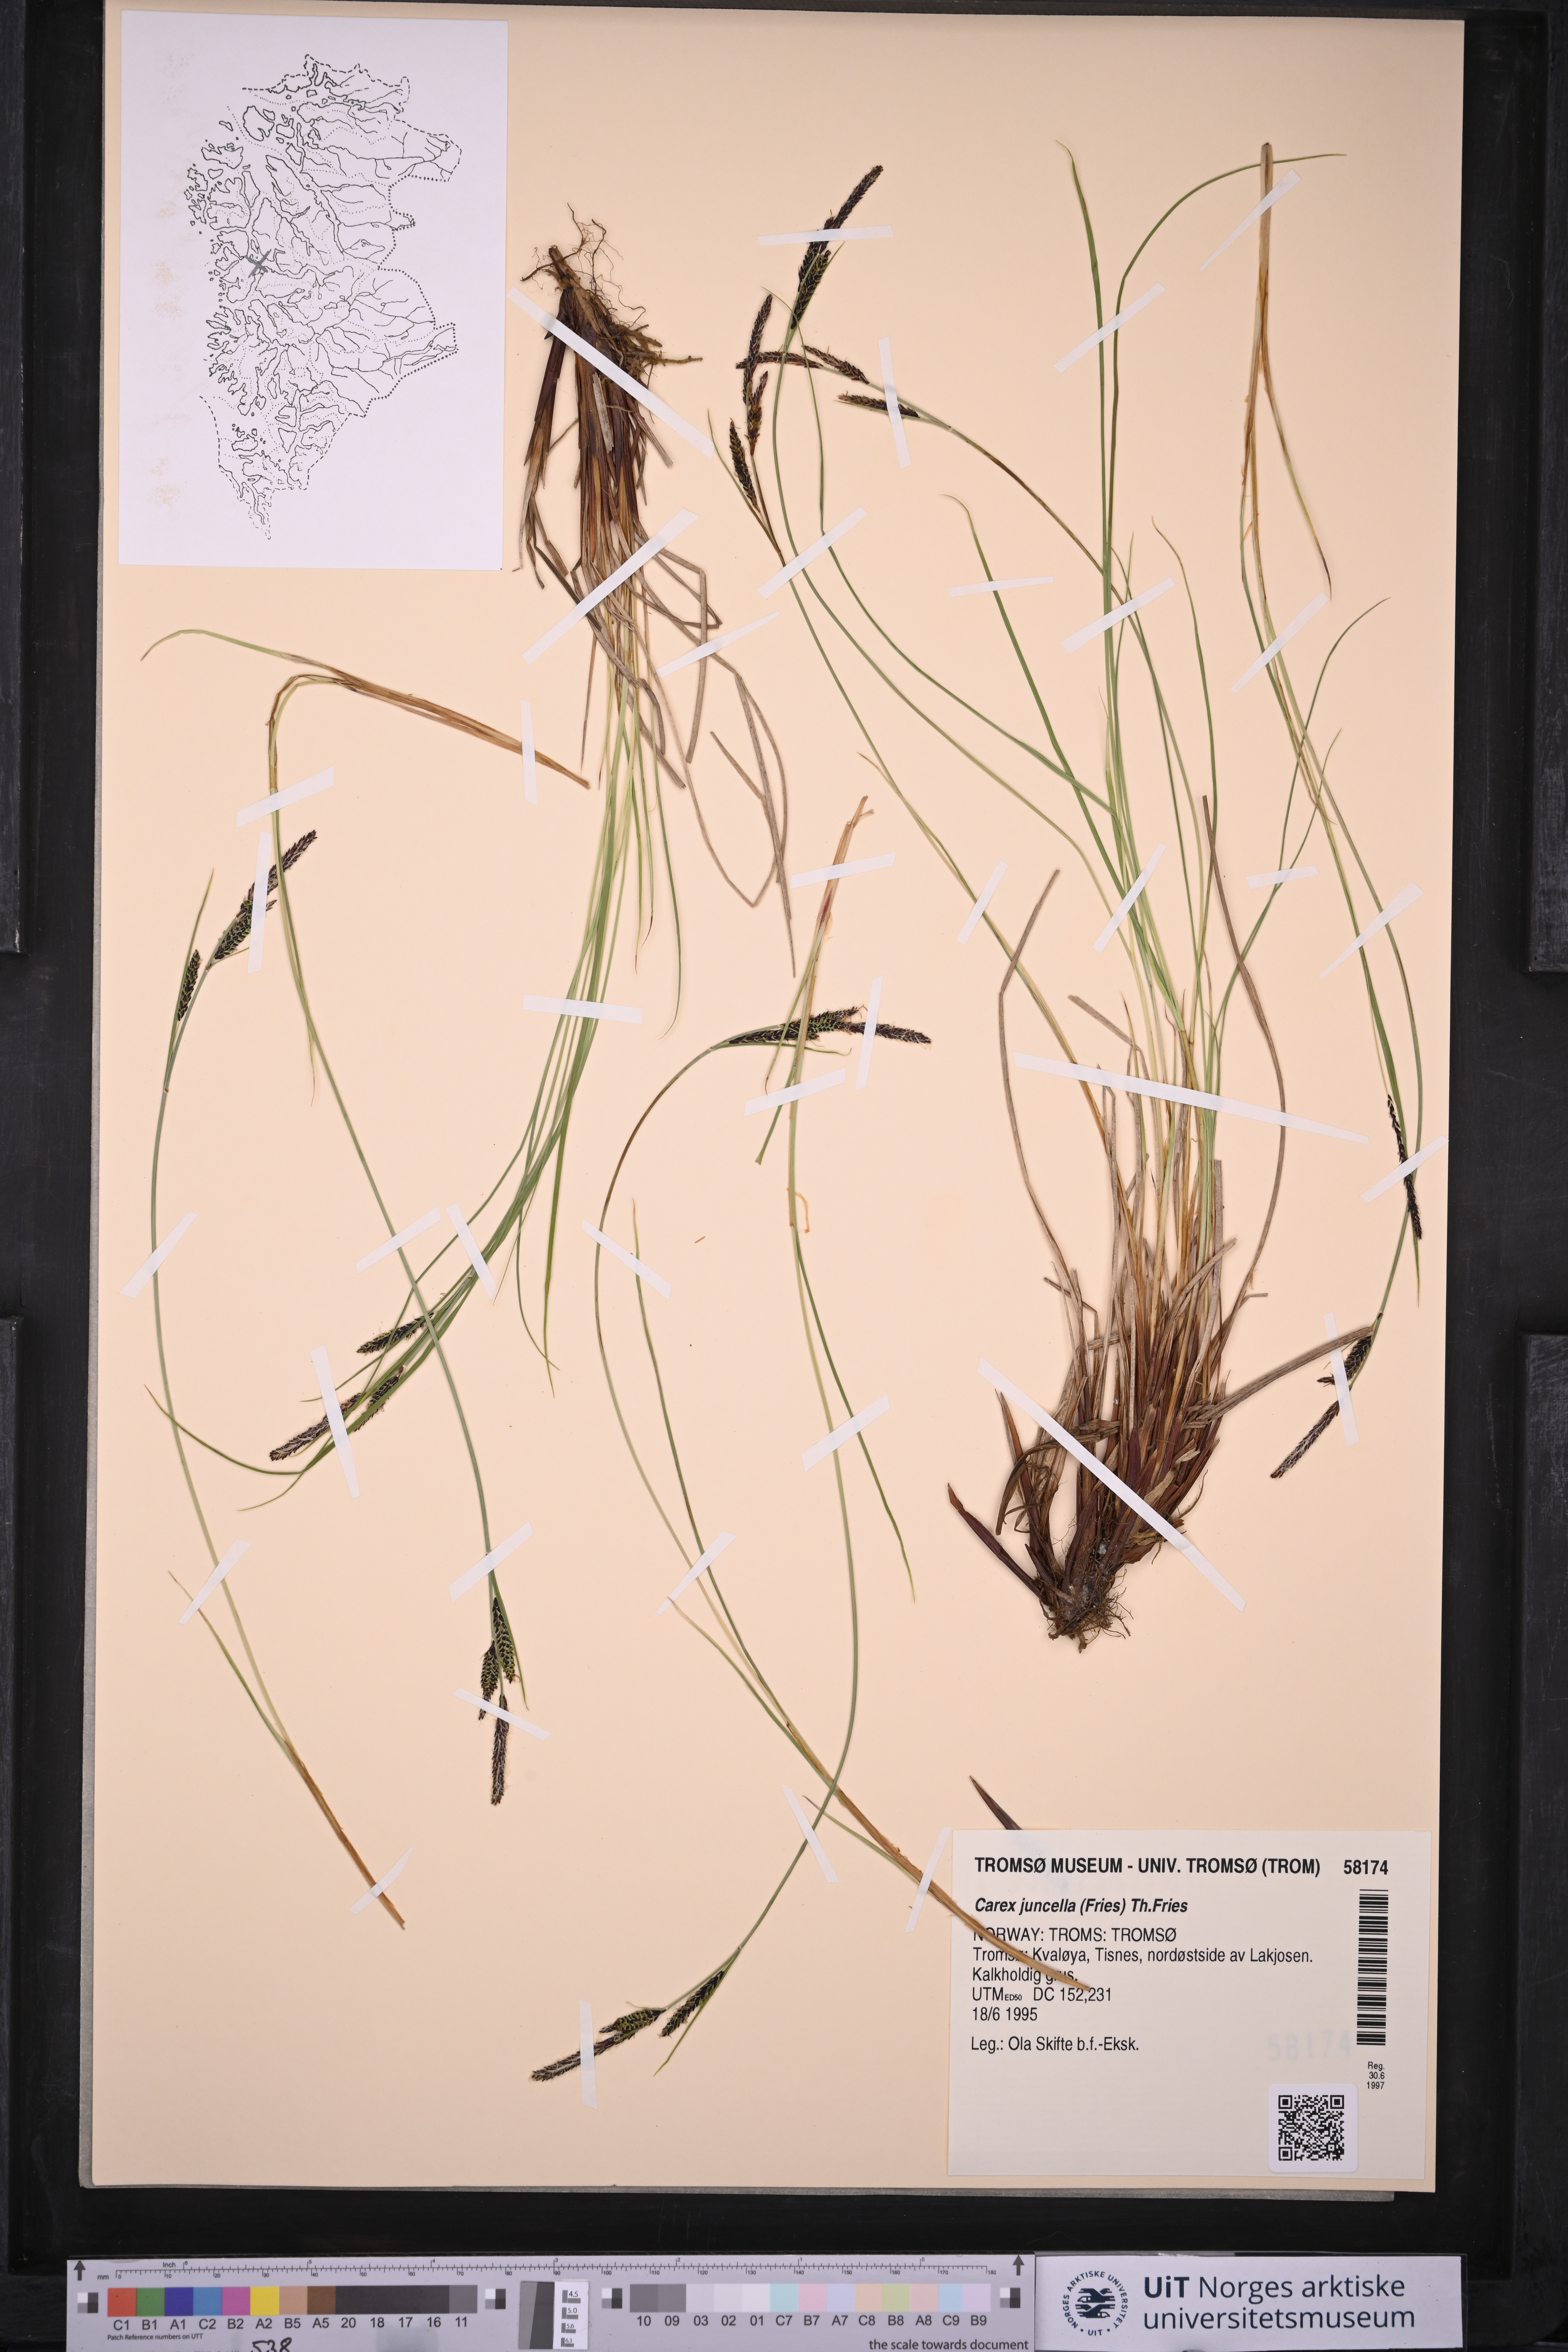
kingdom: Plantae
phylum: Tracheophyta
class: Liliopsida
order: Poales
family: Cyperaceae
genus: Carex
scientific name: Carex nigra
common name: Common sedge
